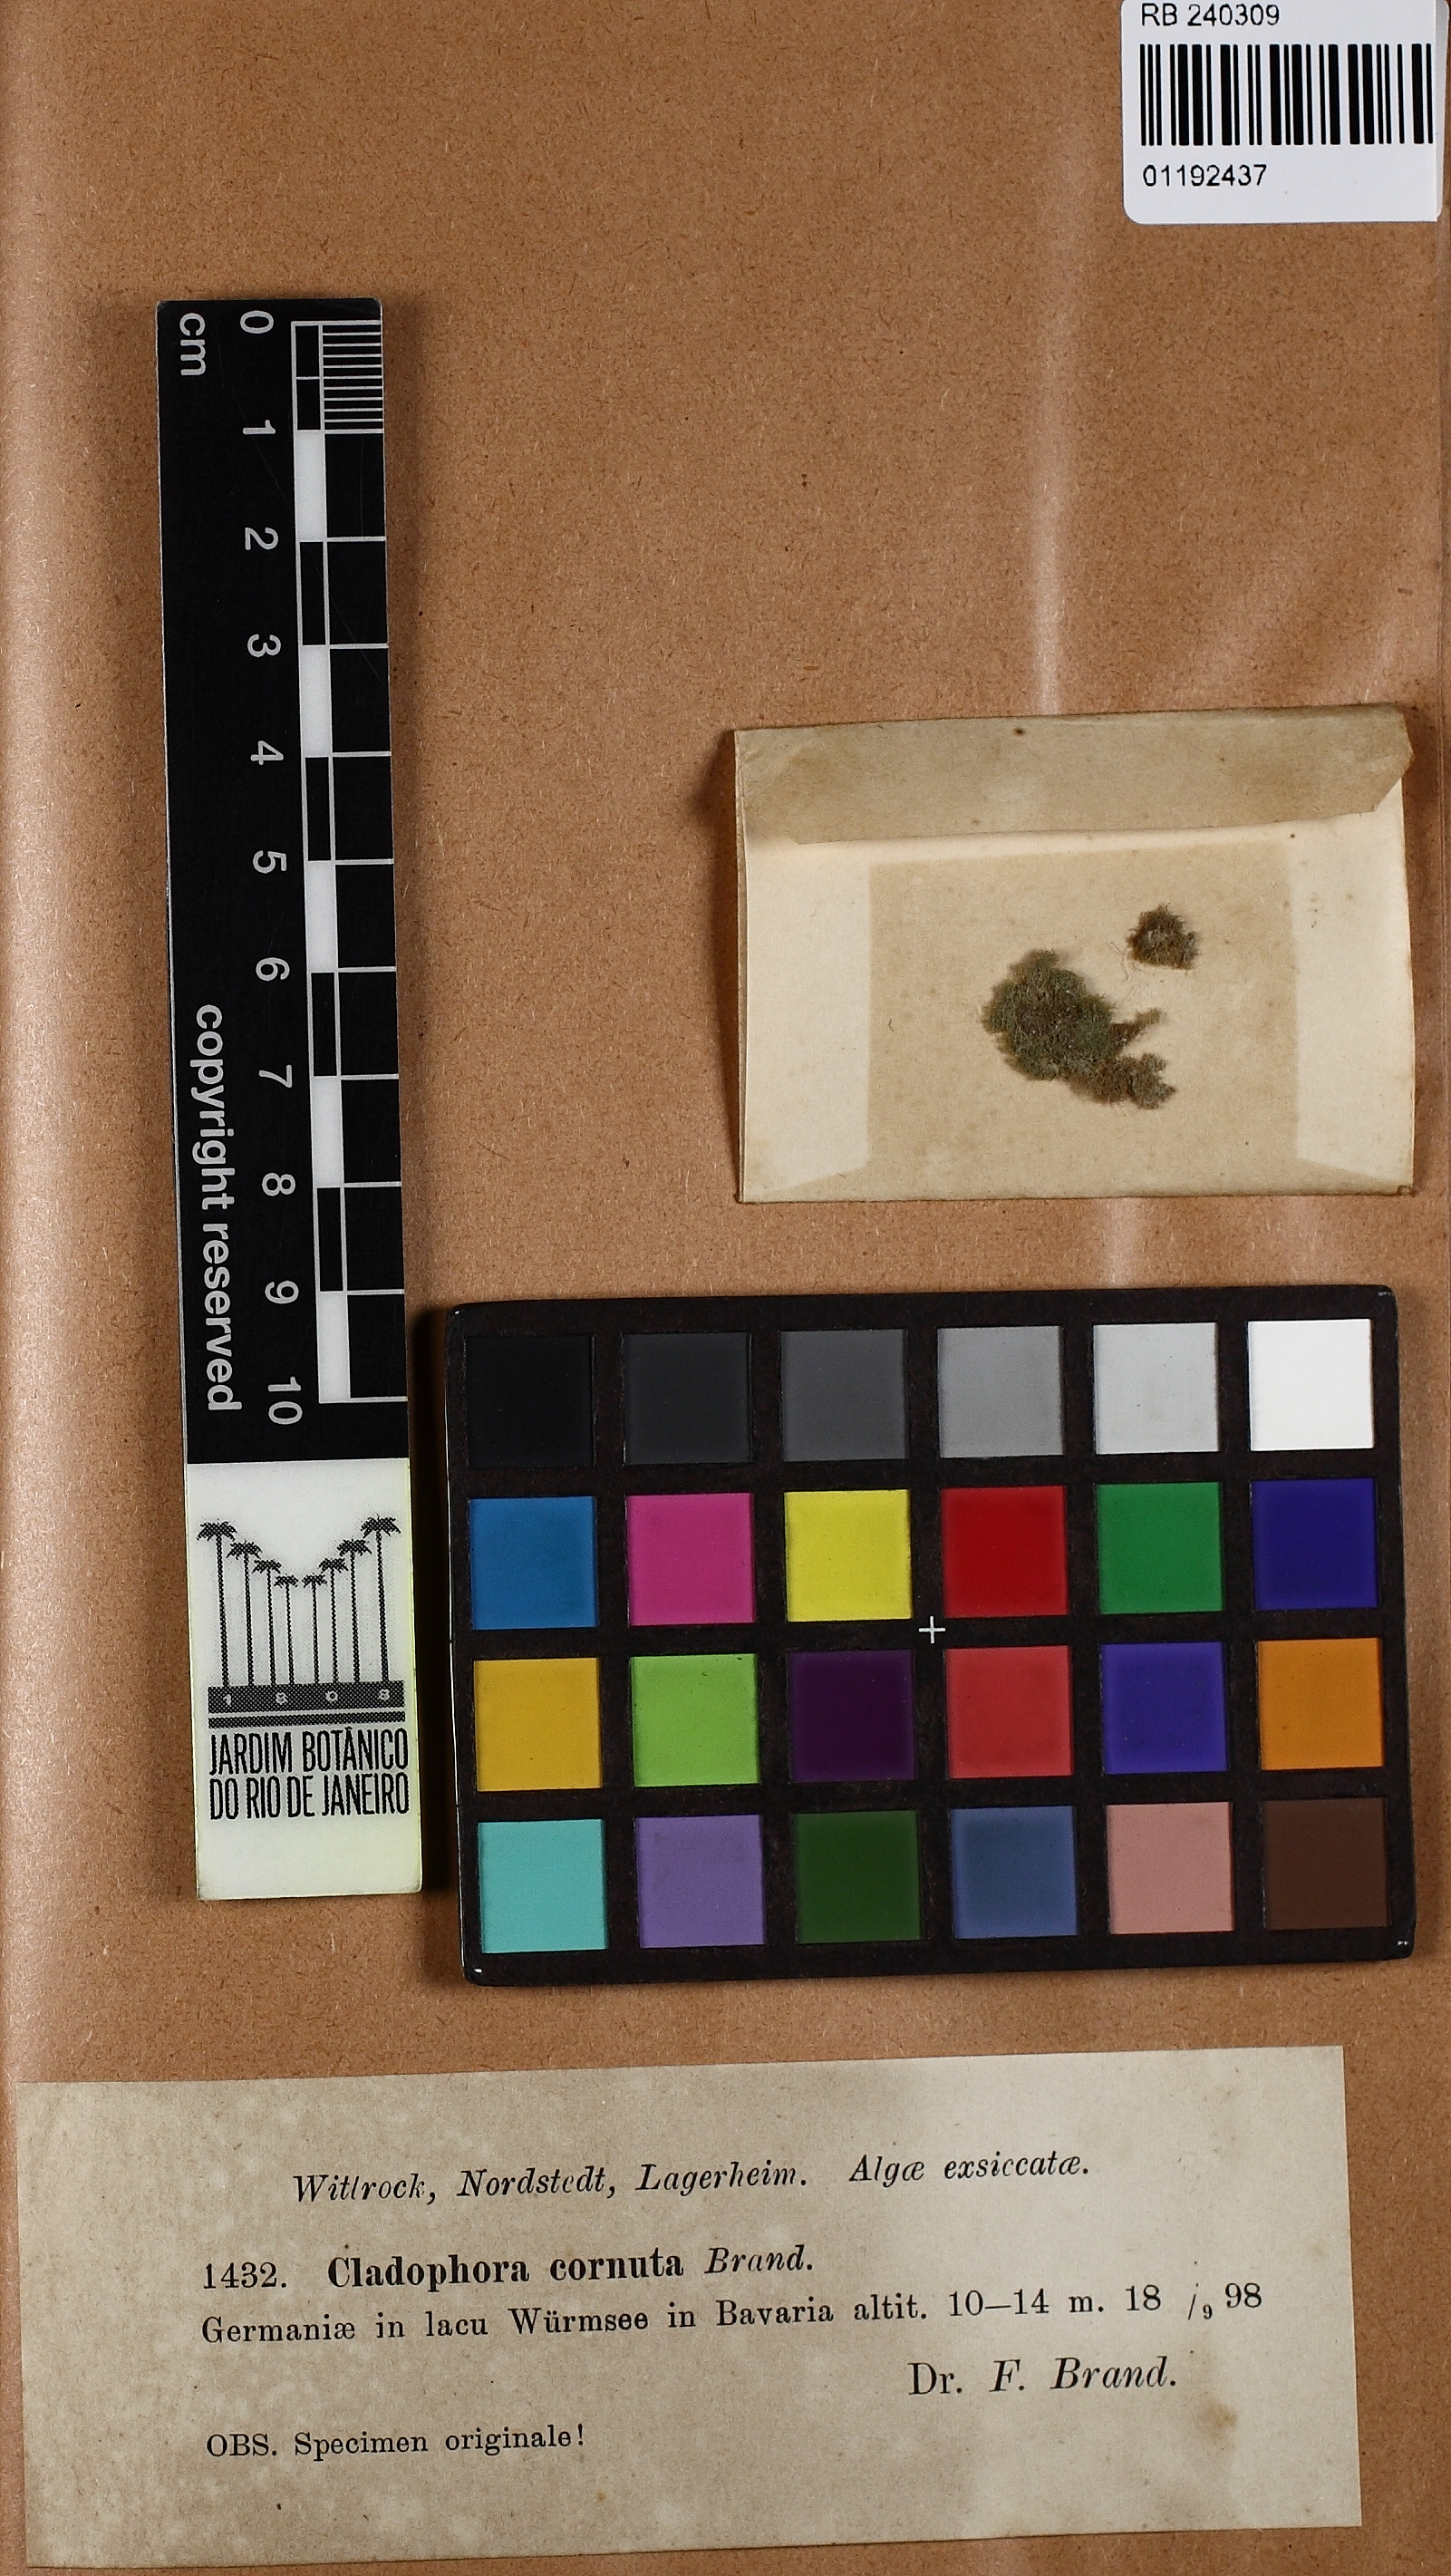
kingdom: Plantae
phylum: Chlorophyta
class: Ulvophyceae
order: Cladophorales
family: Cladophoraceae
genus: Conferva
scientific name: Conferva Cladophora echinus
